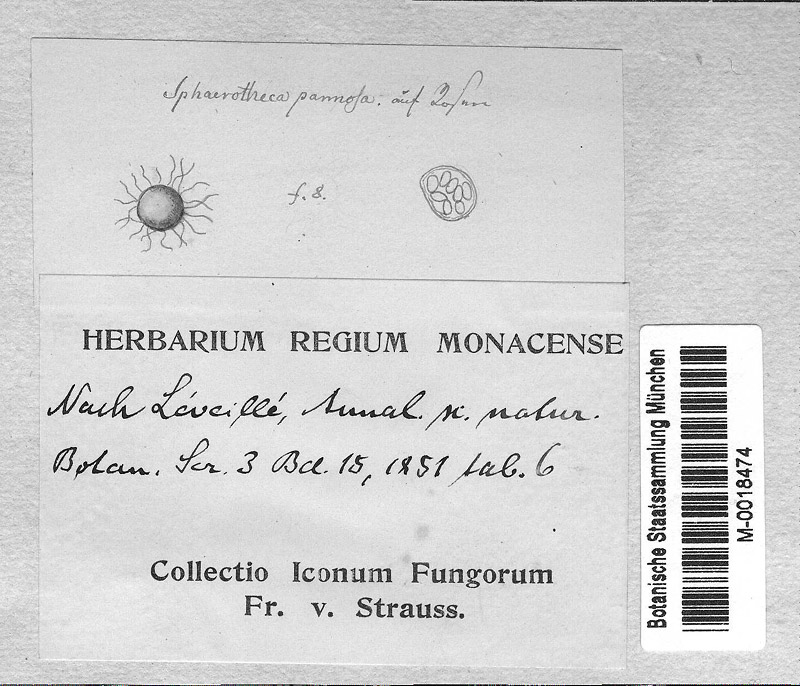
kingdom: Fungi
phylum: Ascomycota
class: Leotiomycetes
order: Helotiales
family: Erysiphaceae
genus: Podosphaera
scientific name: Podosphaera pannosa
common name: Rose mildew
